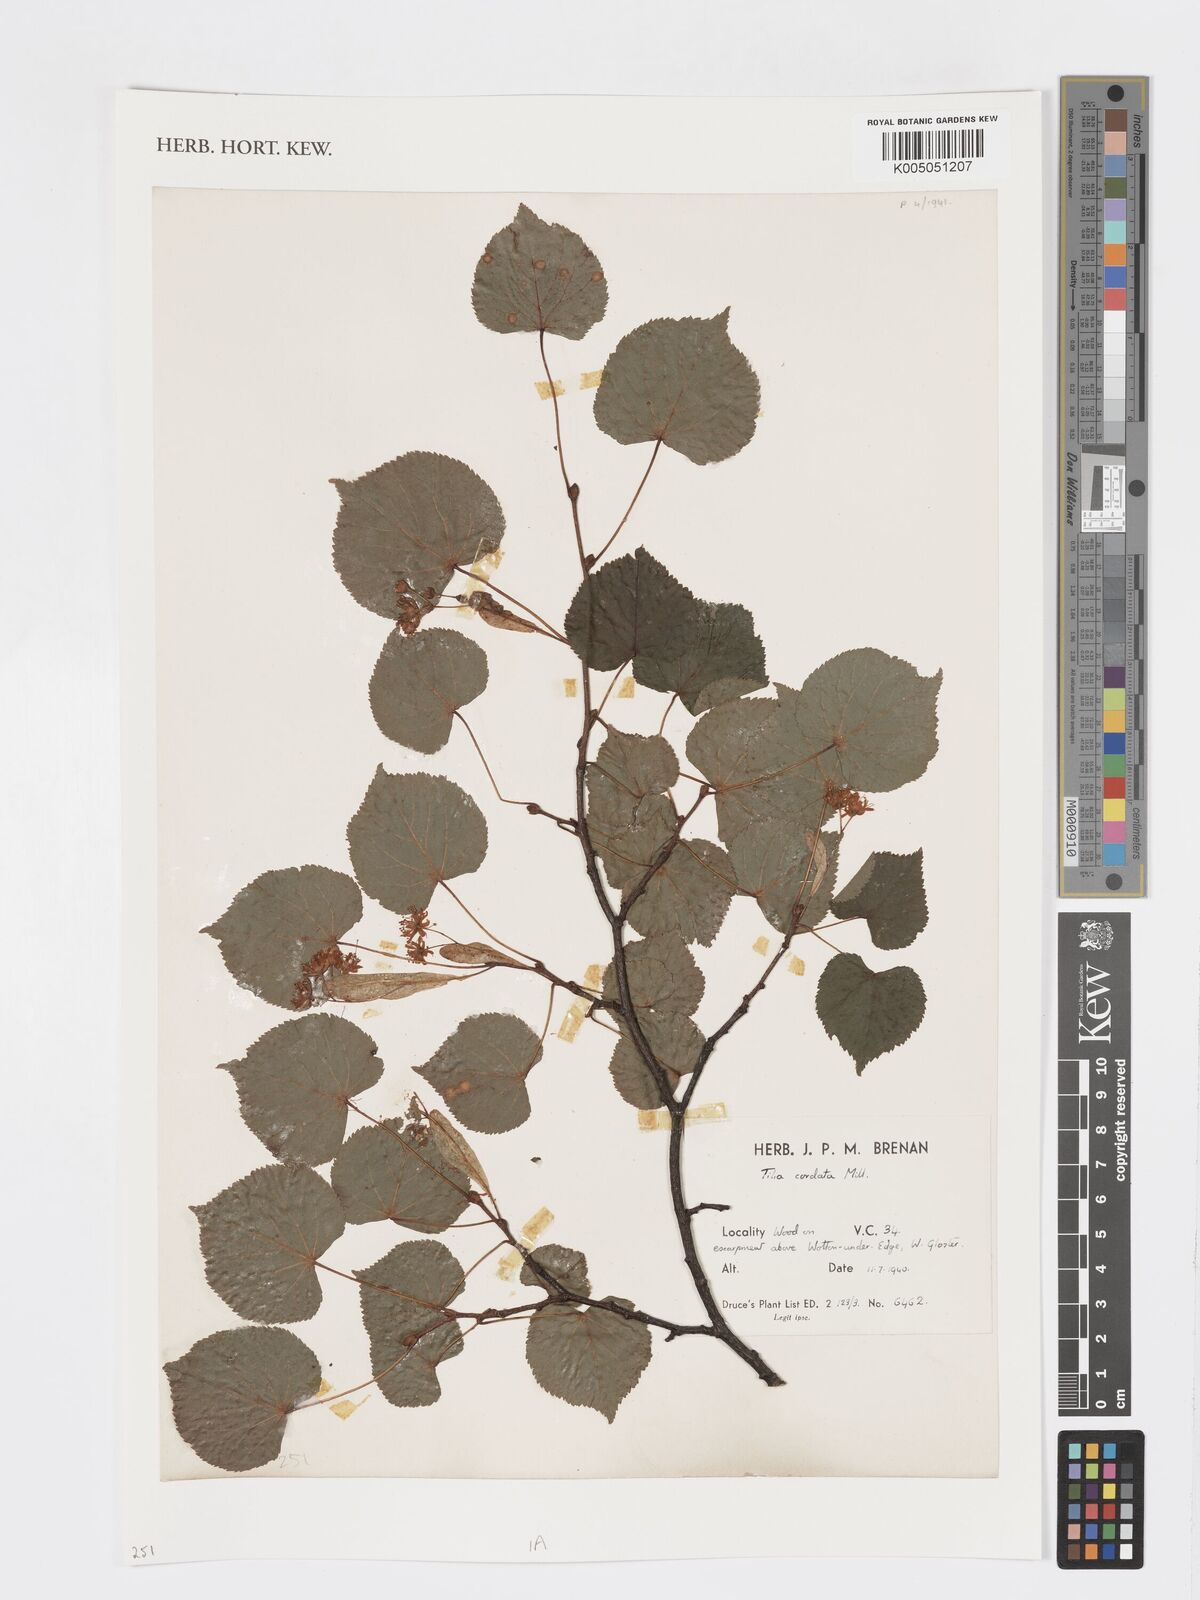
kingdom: Plantae
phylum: Tracheophyta
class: Magnoliopsida
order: Malvales
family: Malvaceae
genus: Tilia
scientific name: Tilia cordata
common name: Small-leaved lime
